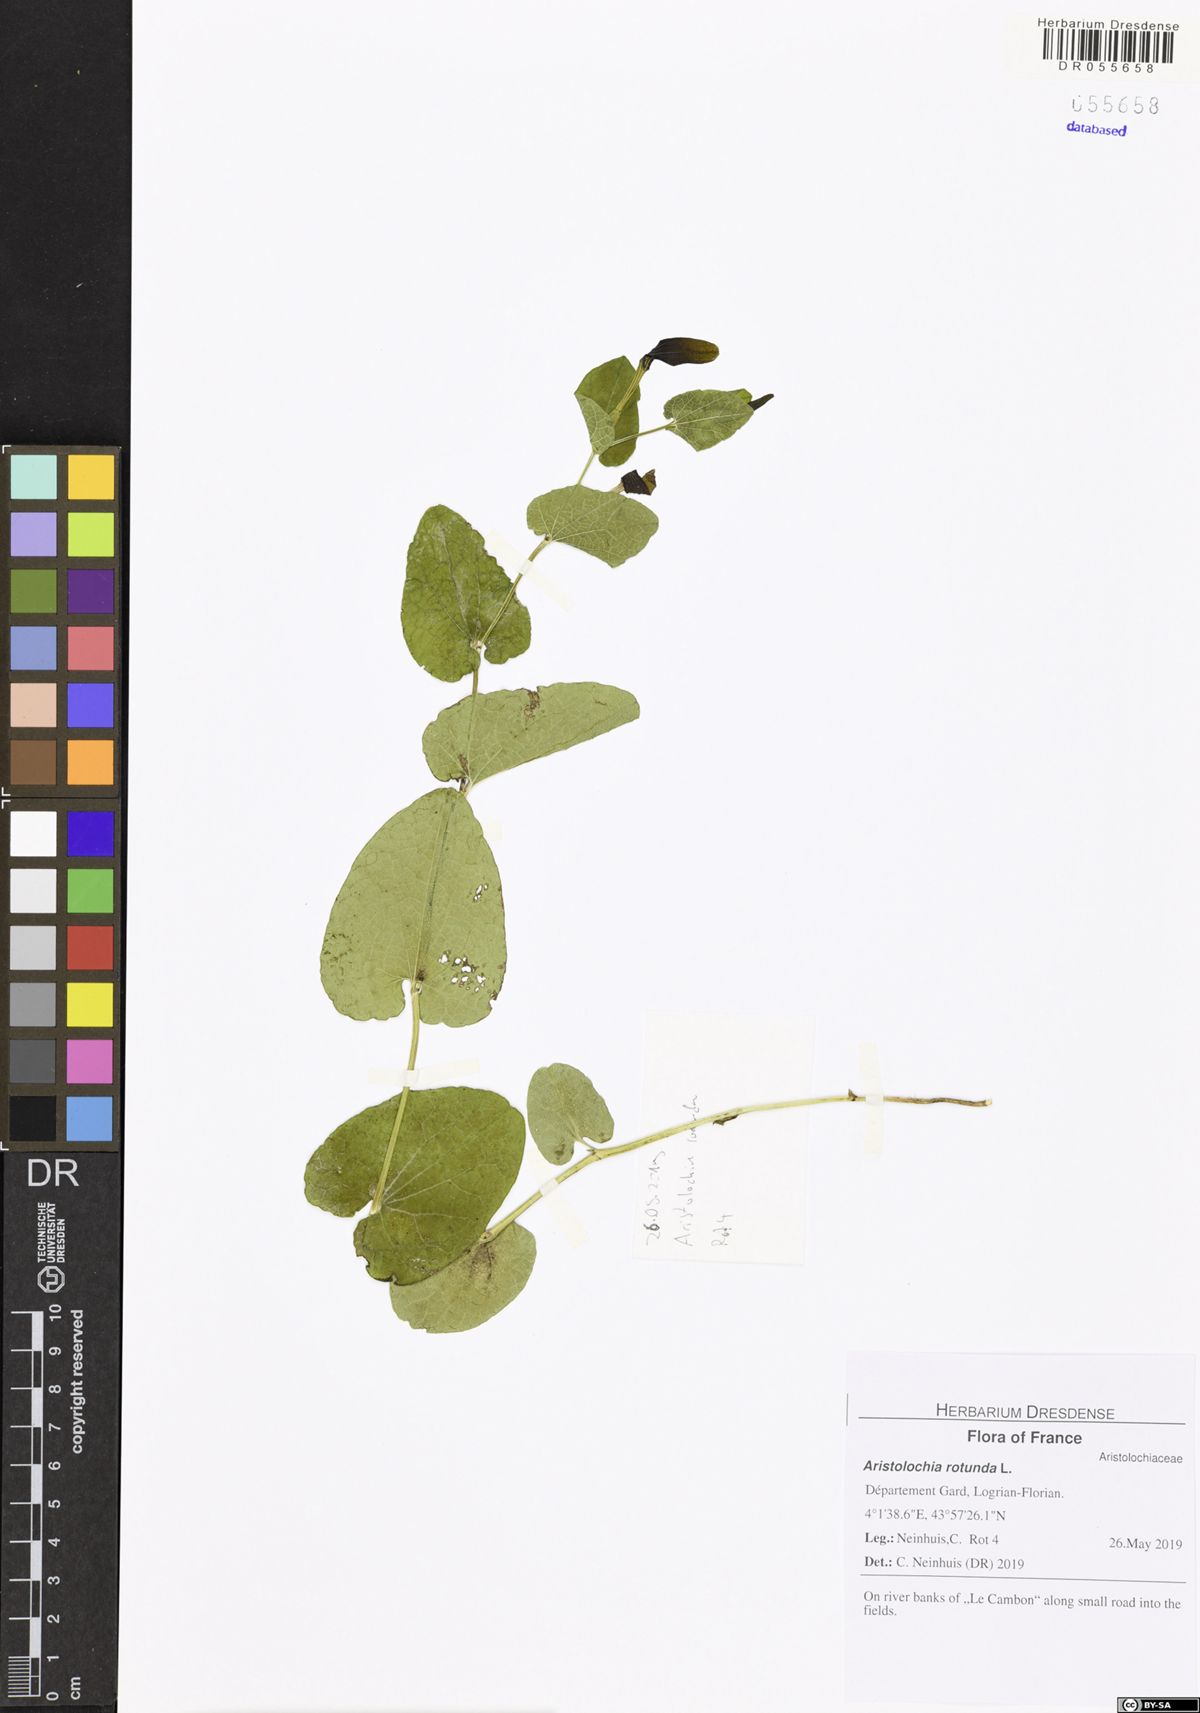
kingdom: Plantae
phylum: Tracheophyta
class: Magnoliopsida
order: Piperales
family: Aristolochiaceae
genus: Aristolochia
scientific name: Aristolochia rotunda
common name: Smearwort
